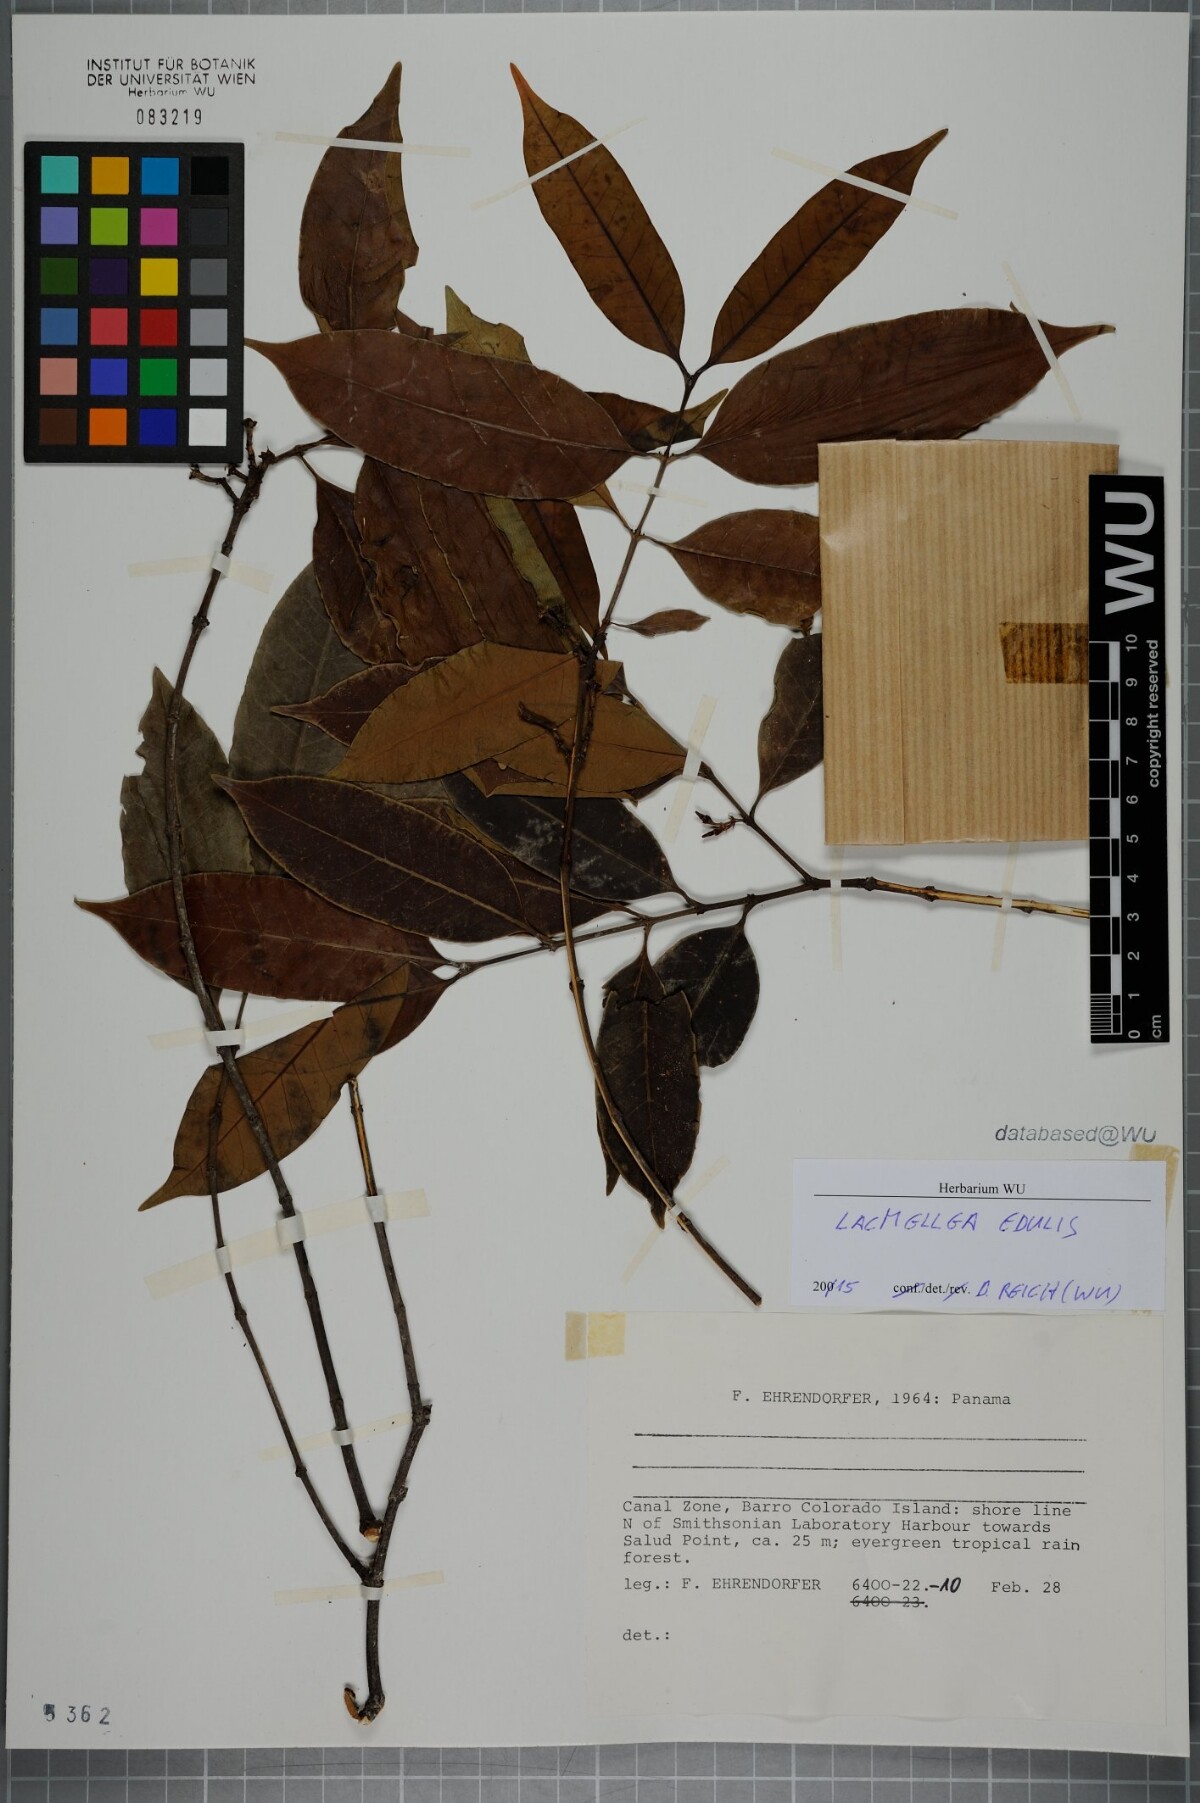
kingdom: Plantae
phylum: Tracheophyta
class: Magnoliopsida
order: Gentianales
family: Apocynaceae
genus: Lacmellea
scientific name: Lacmellea edulis
